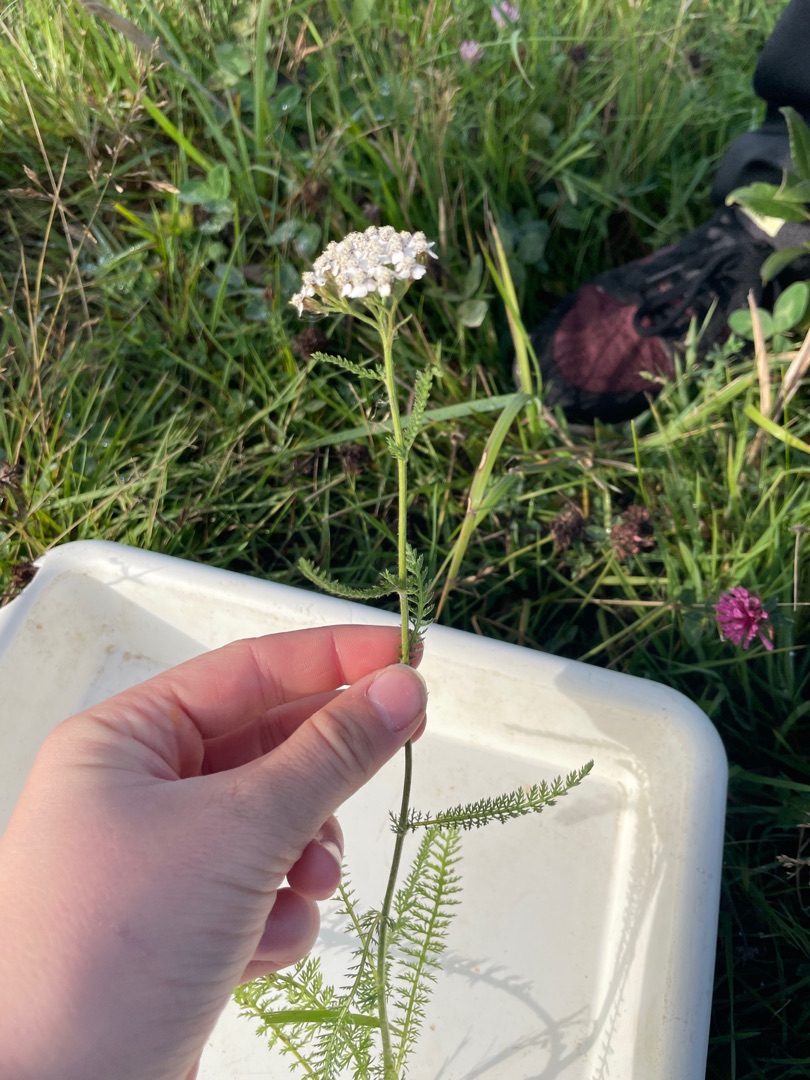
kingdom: Plantae
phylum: Tracheophyta
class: Magnoliopsida
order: Asterales
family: Asteraceae
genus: Achillea
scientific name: Achillea millefolium
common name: Almindelig røllike
